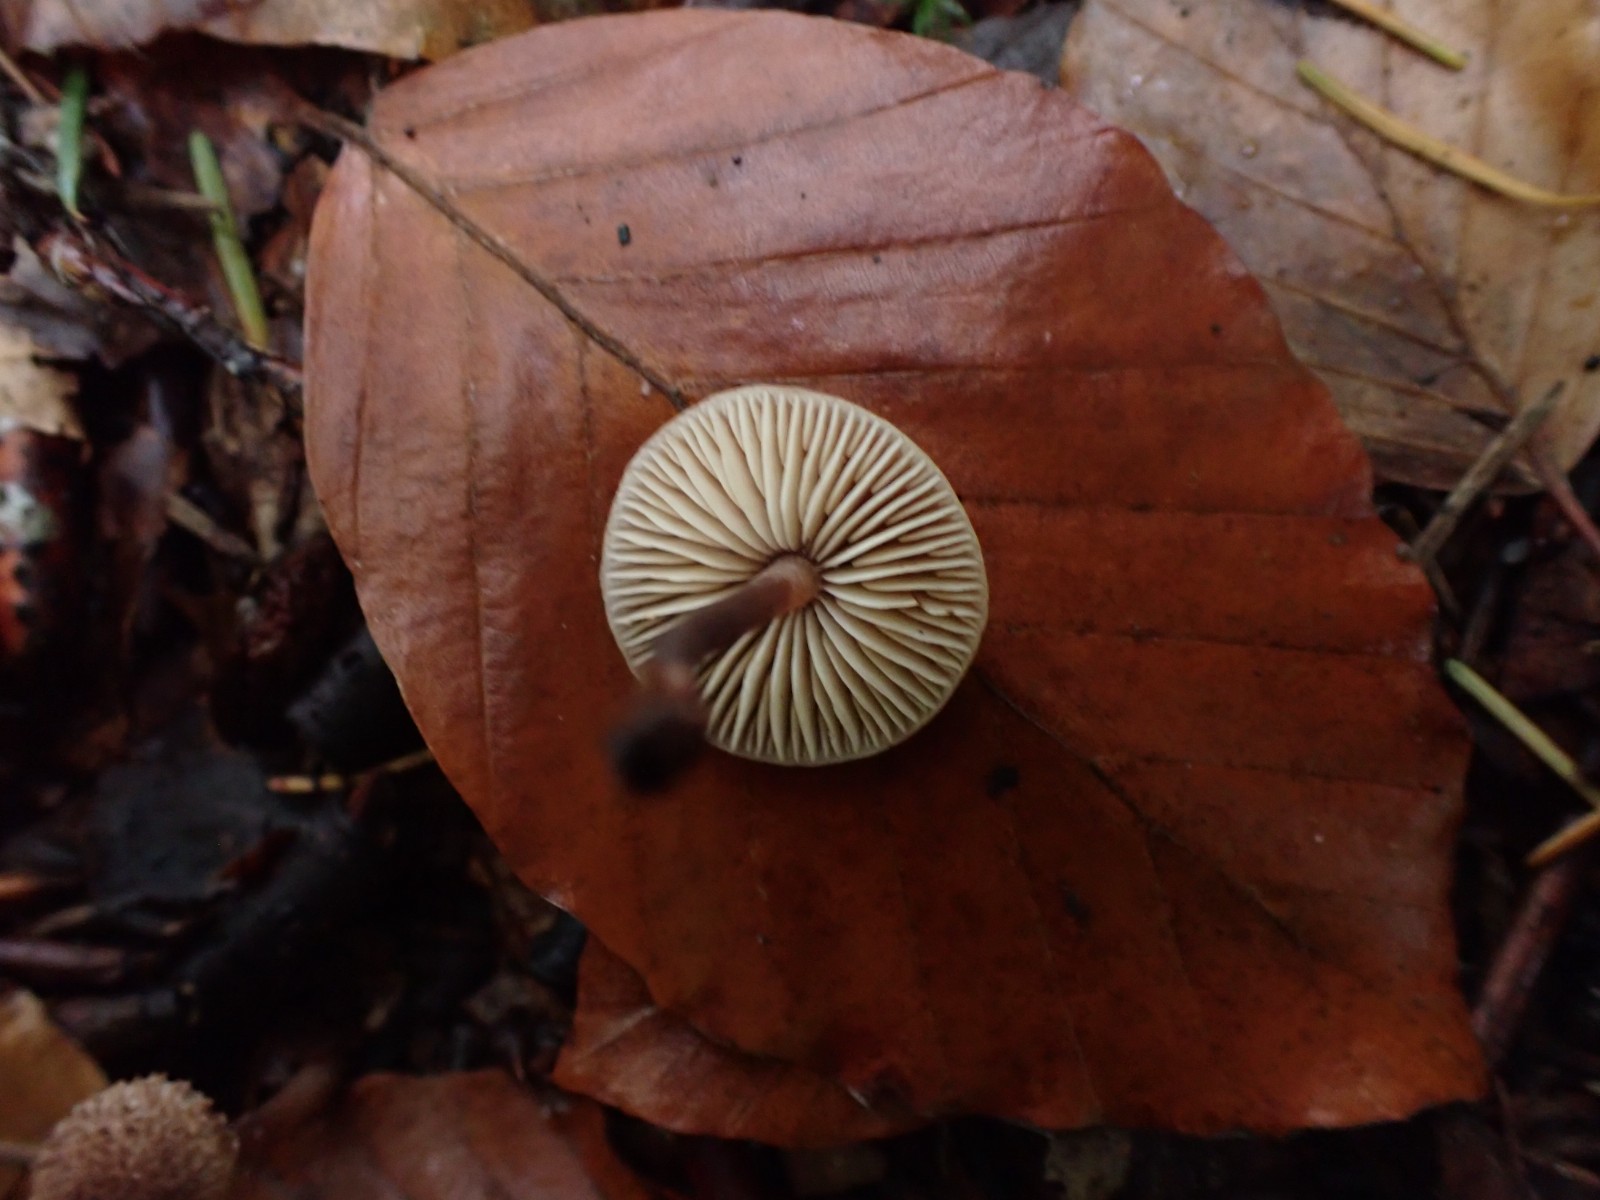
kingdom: Fungi
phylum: Basidiomycota
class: Agaricomycetes
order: Agaricales
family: Macrocystidiaceae
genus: Macrocystidia
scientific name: Macrocystidia cucumis
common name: agurkehat
